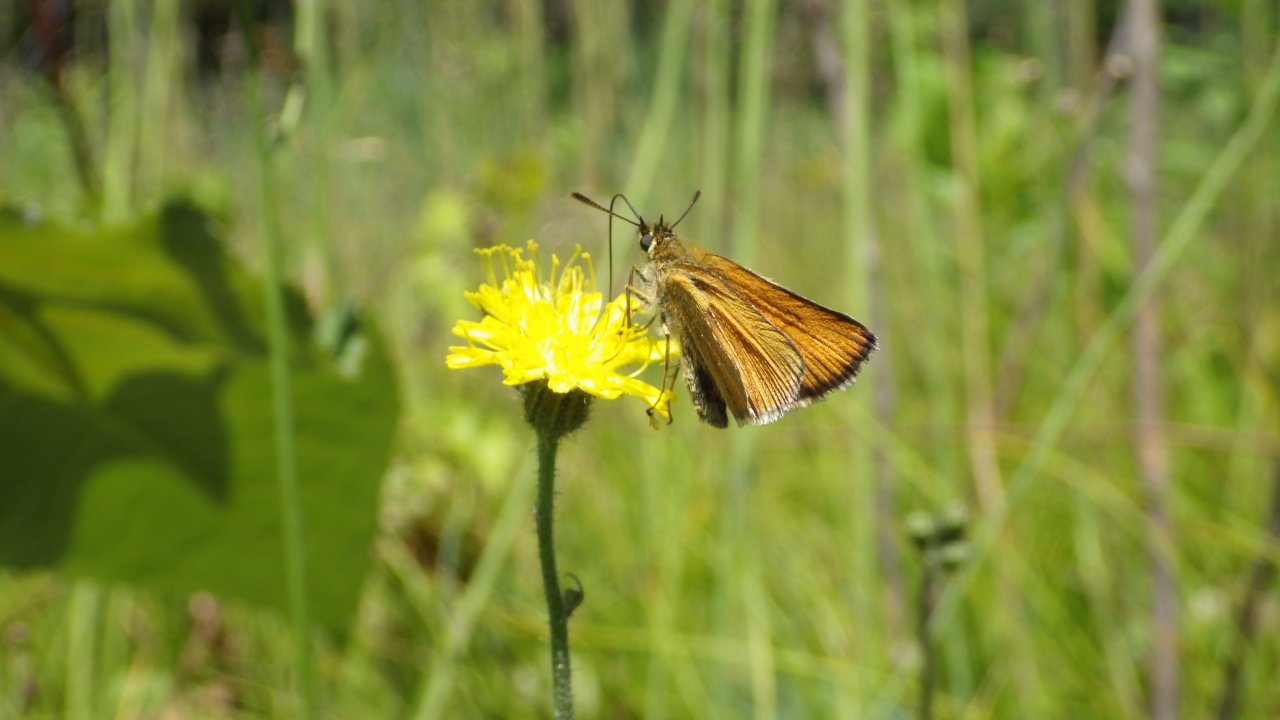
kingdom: Animalia
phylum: Arthropoda
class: Insecta
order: Lepidoptera
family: Hesperiidae
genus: Thymelicus
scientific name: Thymelicus lineola
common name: European Skipper
